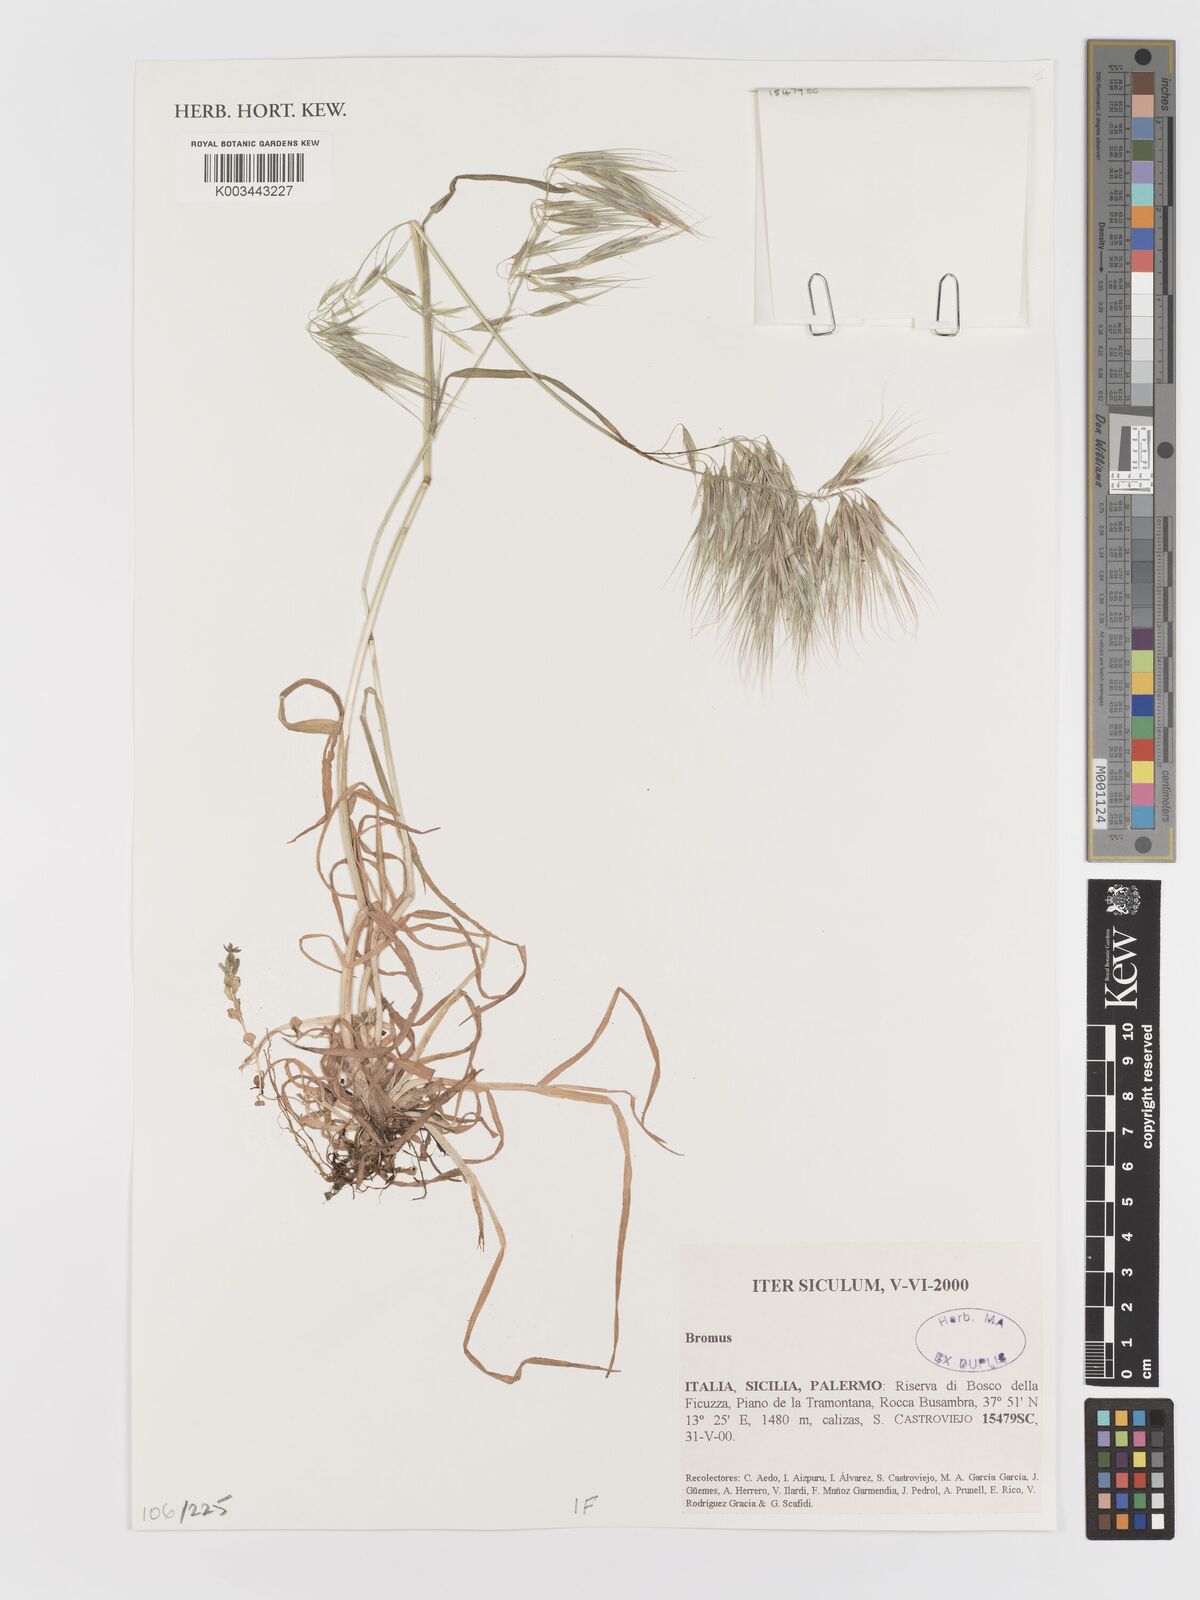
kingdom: Plantae
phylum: Tracheophyta
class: Liliopsida
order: Poales
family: Poaceae
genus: Bromus
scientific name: Bromus
